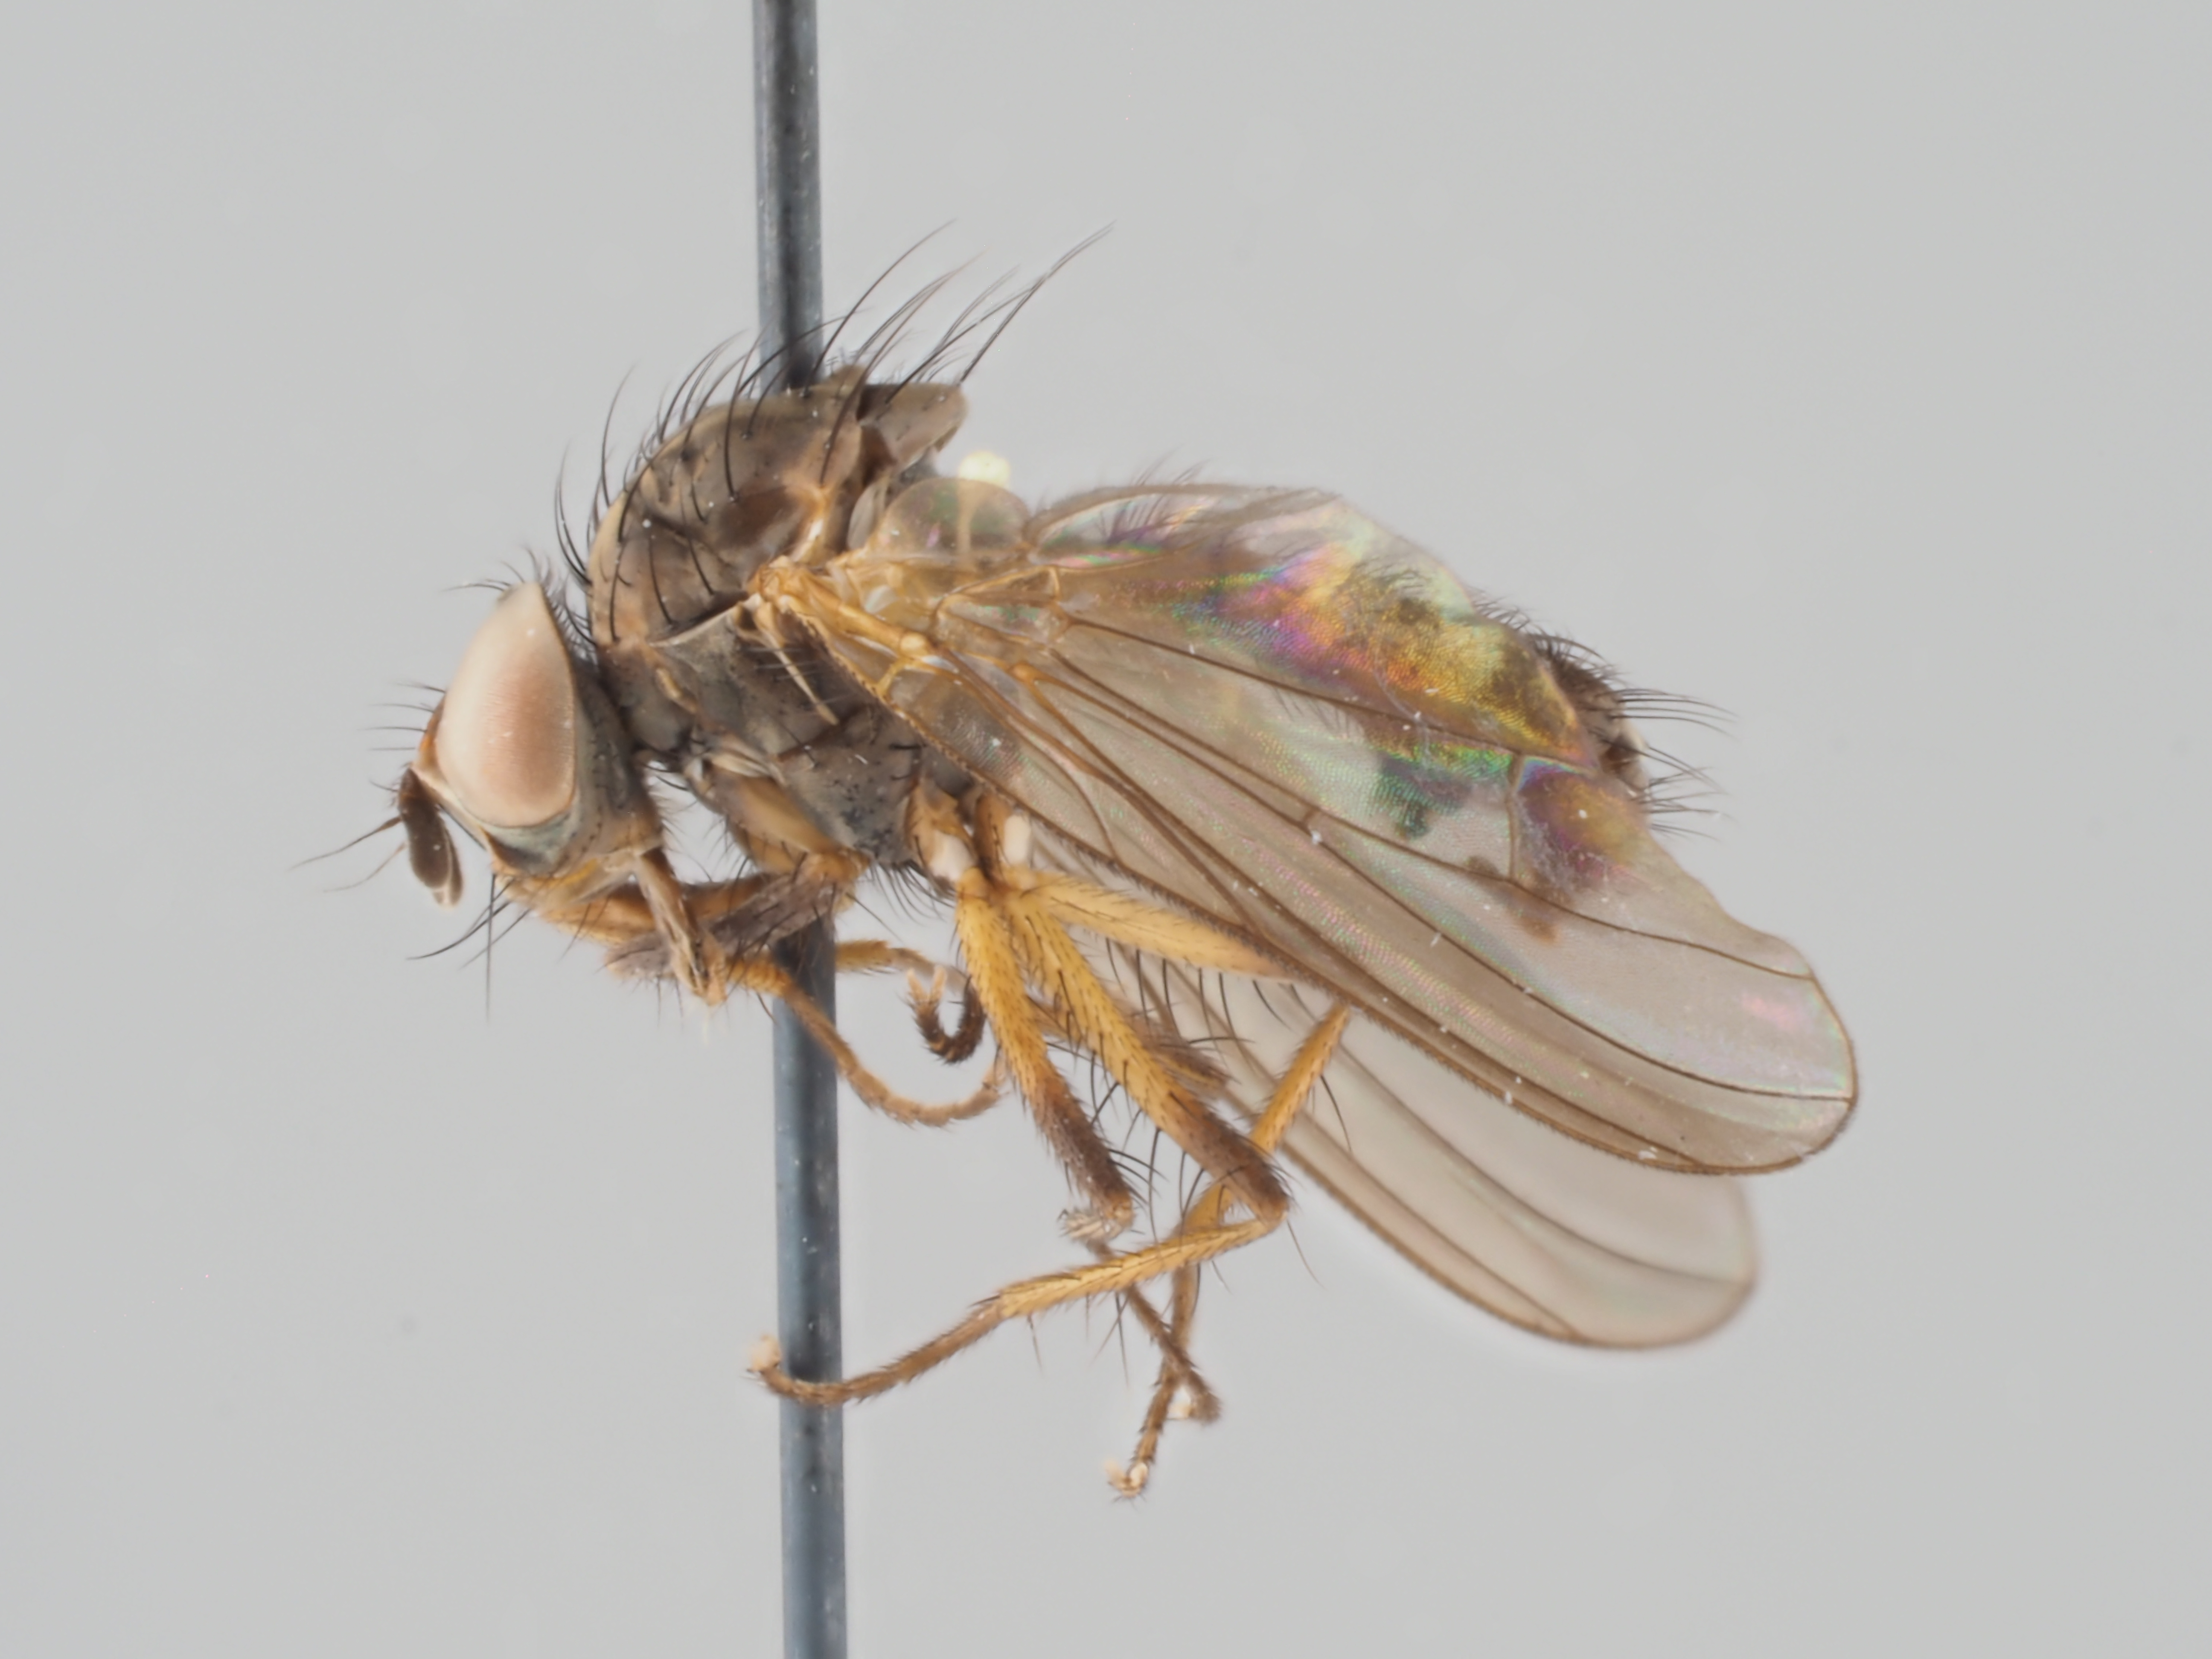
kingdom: Animalia
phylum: Arthropoda
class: Insecta
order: Diptera
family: Anthomyiidae
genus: Pegomya
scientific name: Pegomya scapularis
